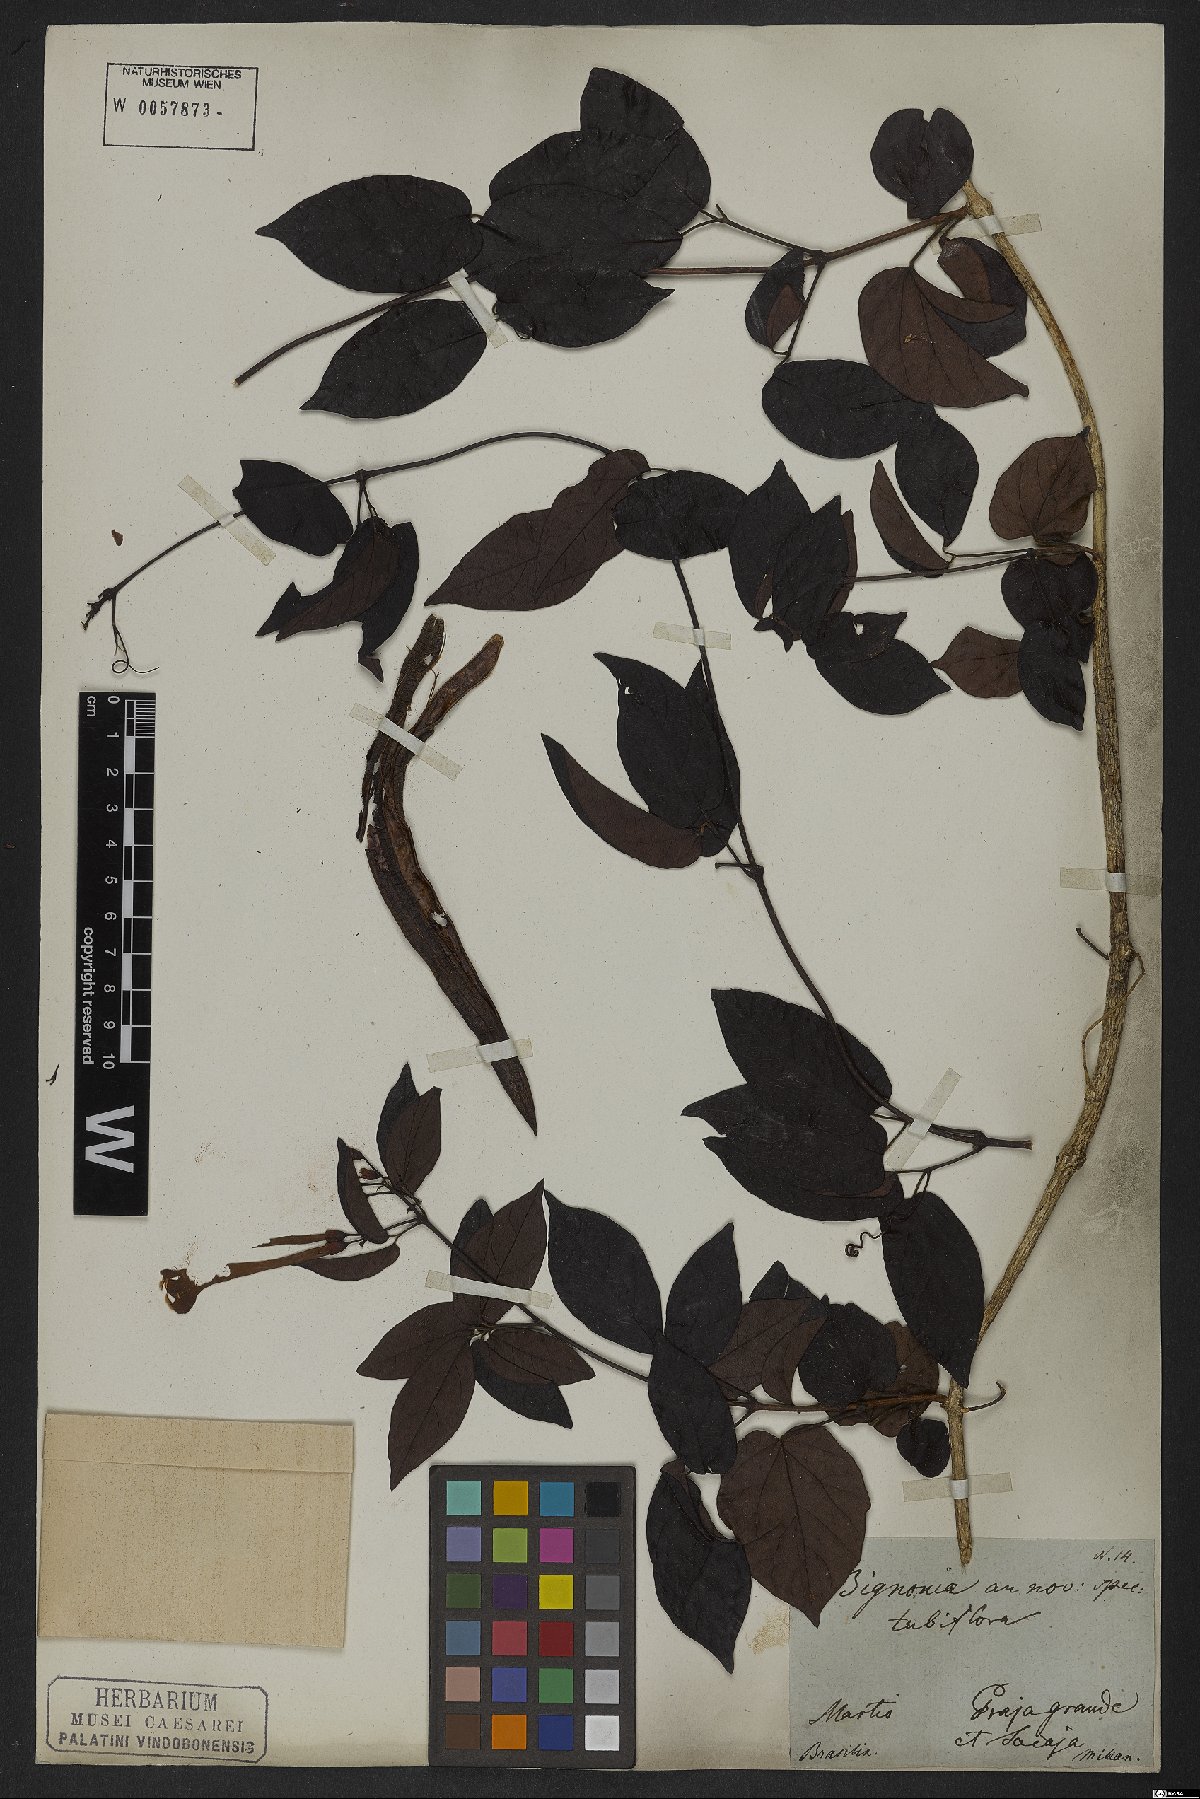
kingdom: Plantae
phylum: Tracheophyta
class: Magnoliopsida
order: Lamiales
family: Bignoniaceae
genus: Lundia
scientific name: Lundia corymbifera
